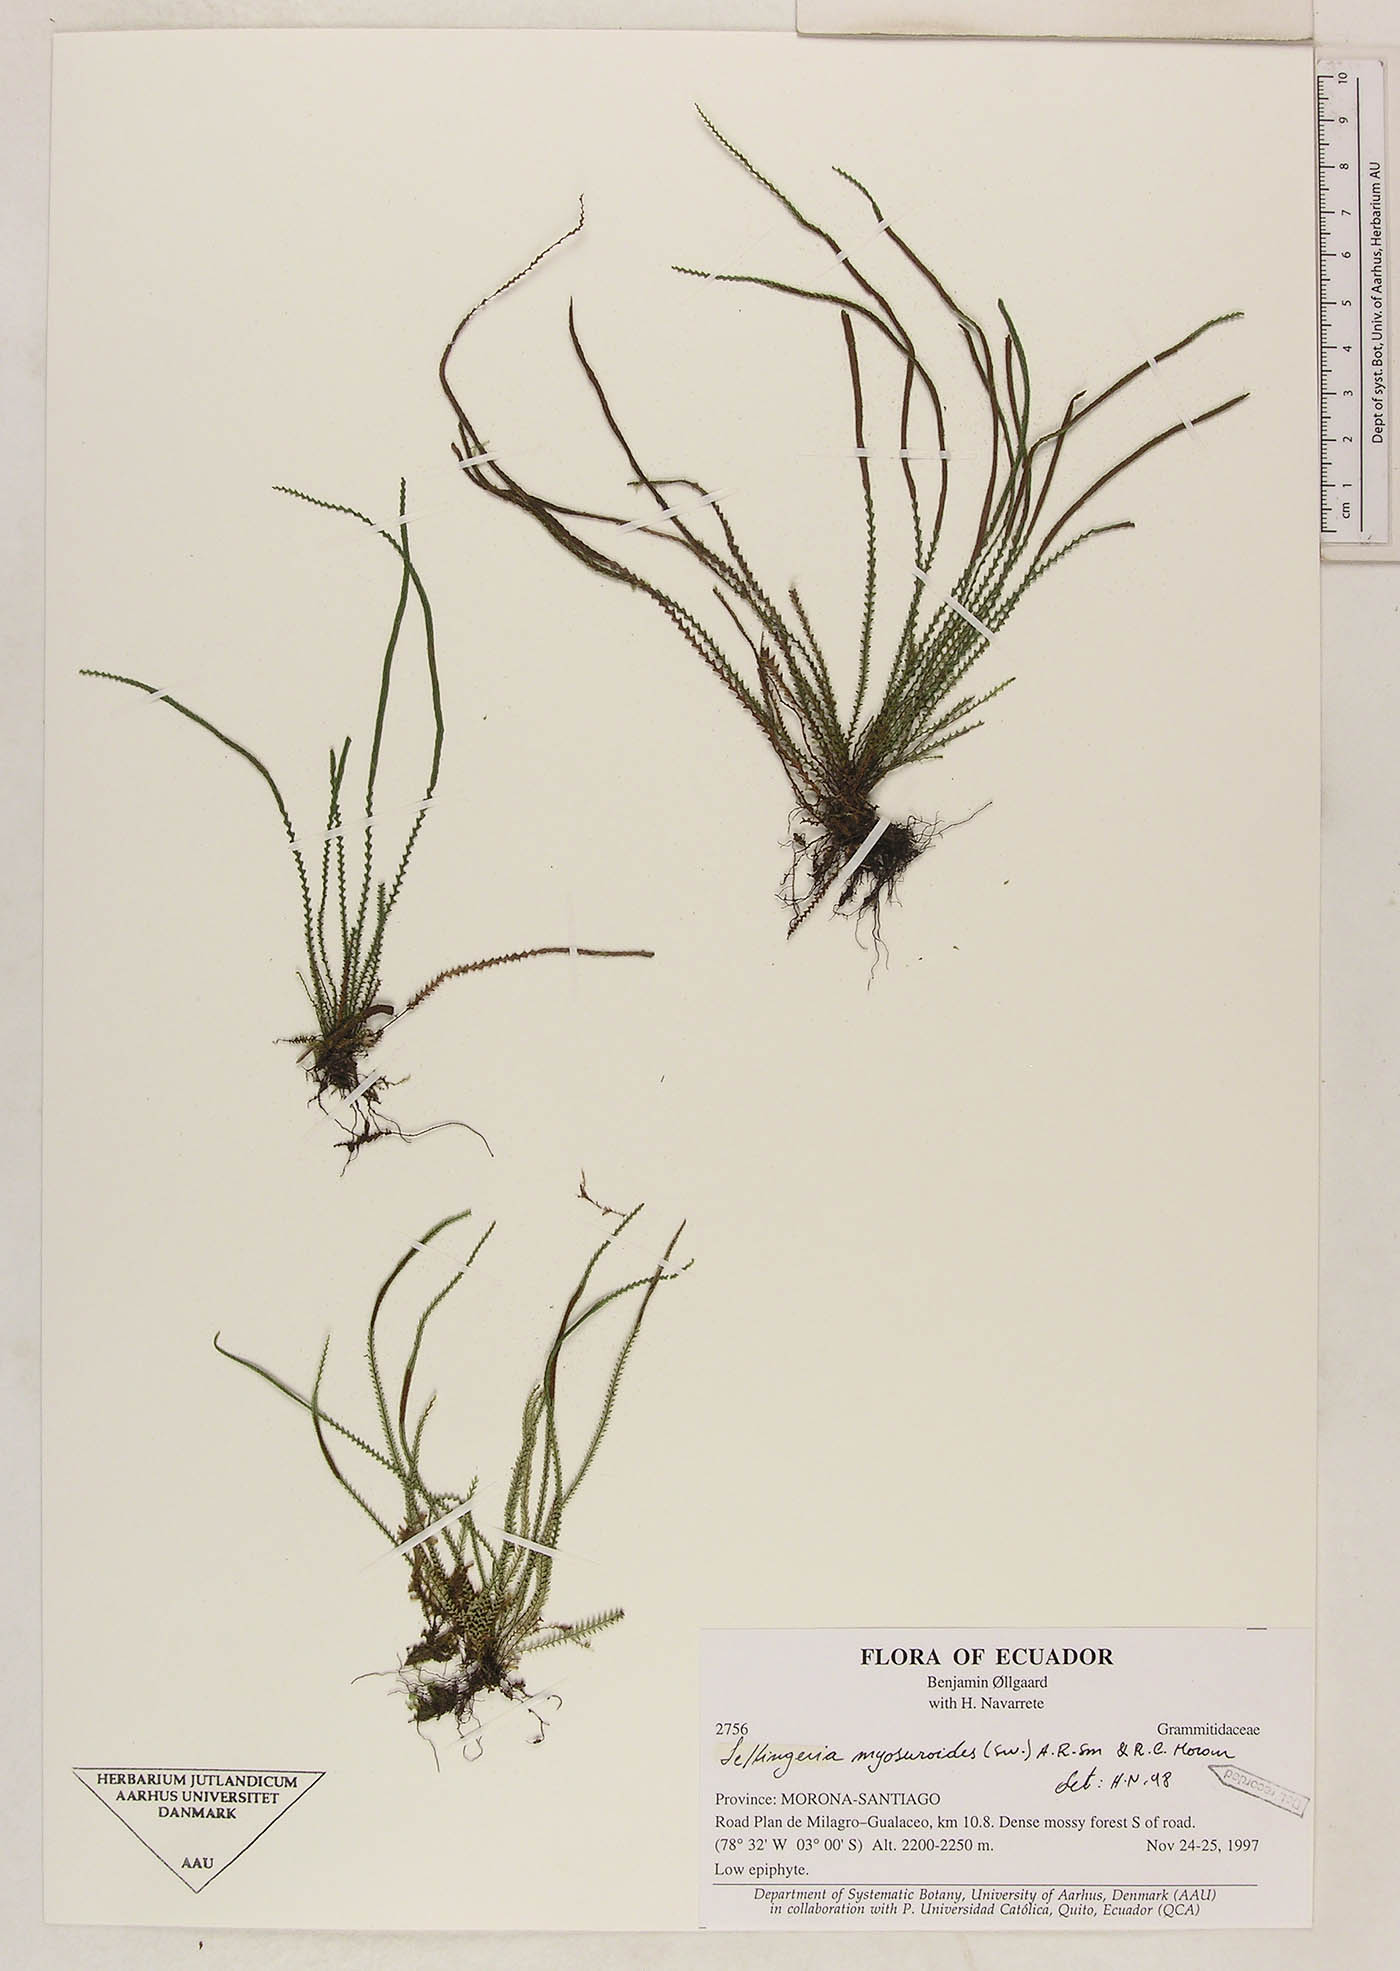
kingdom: Plantae
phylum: Tracheophyta
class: Polypodiopsida
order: Polypodiales
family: Polypodiaceae
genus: Stenogrammitis
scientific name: Stenogrammitis jamesonii
